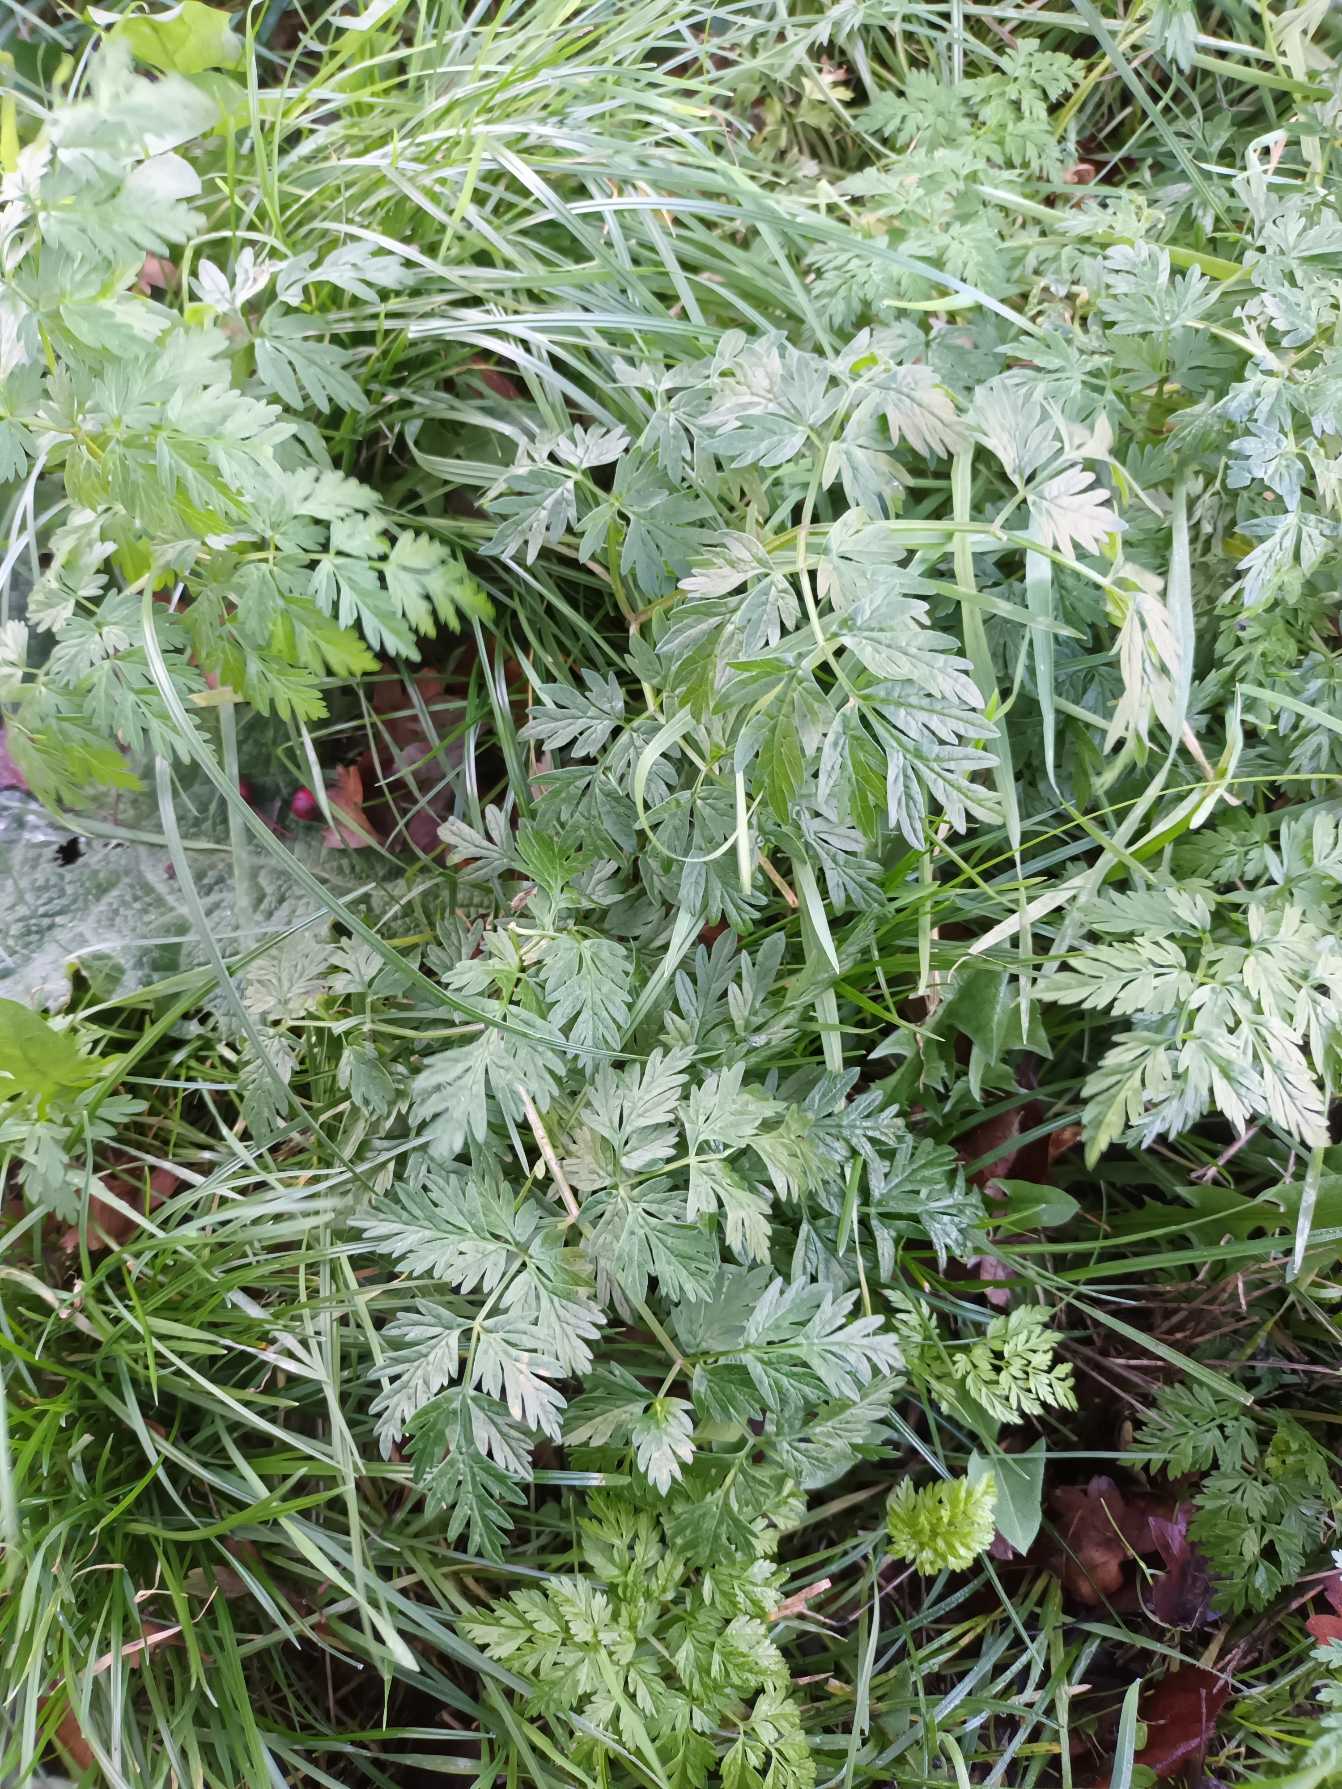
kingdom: Plantae
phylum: Tracheophyta
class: Magnoliopsida
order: Apiales
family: Apiaceae
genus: Anthriscus
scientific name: Anthriscus sylvestris
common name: Vild kørvel
